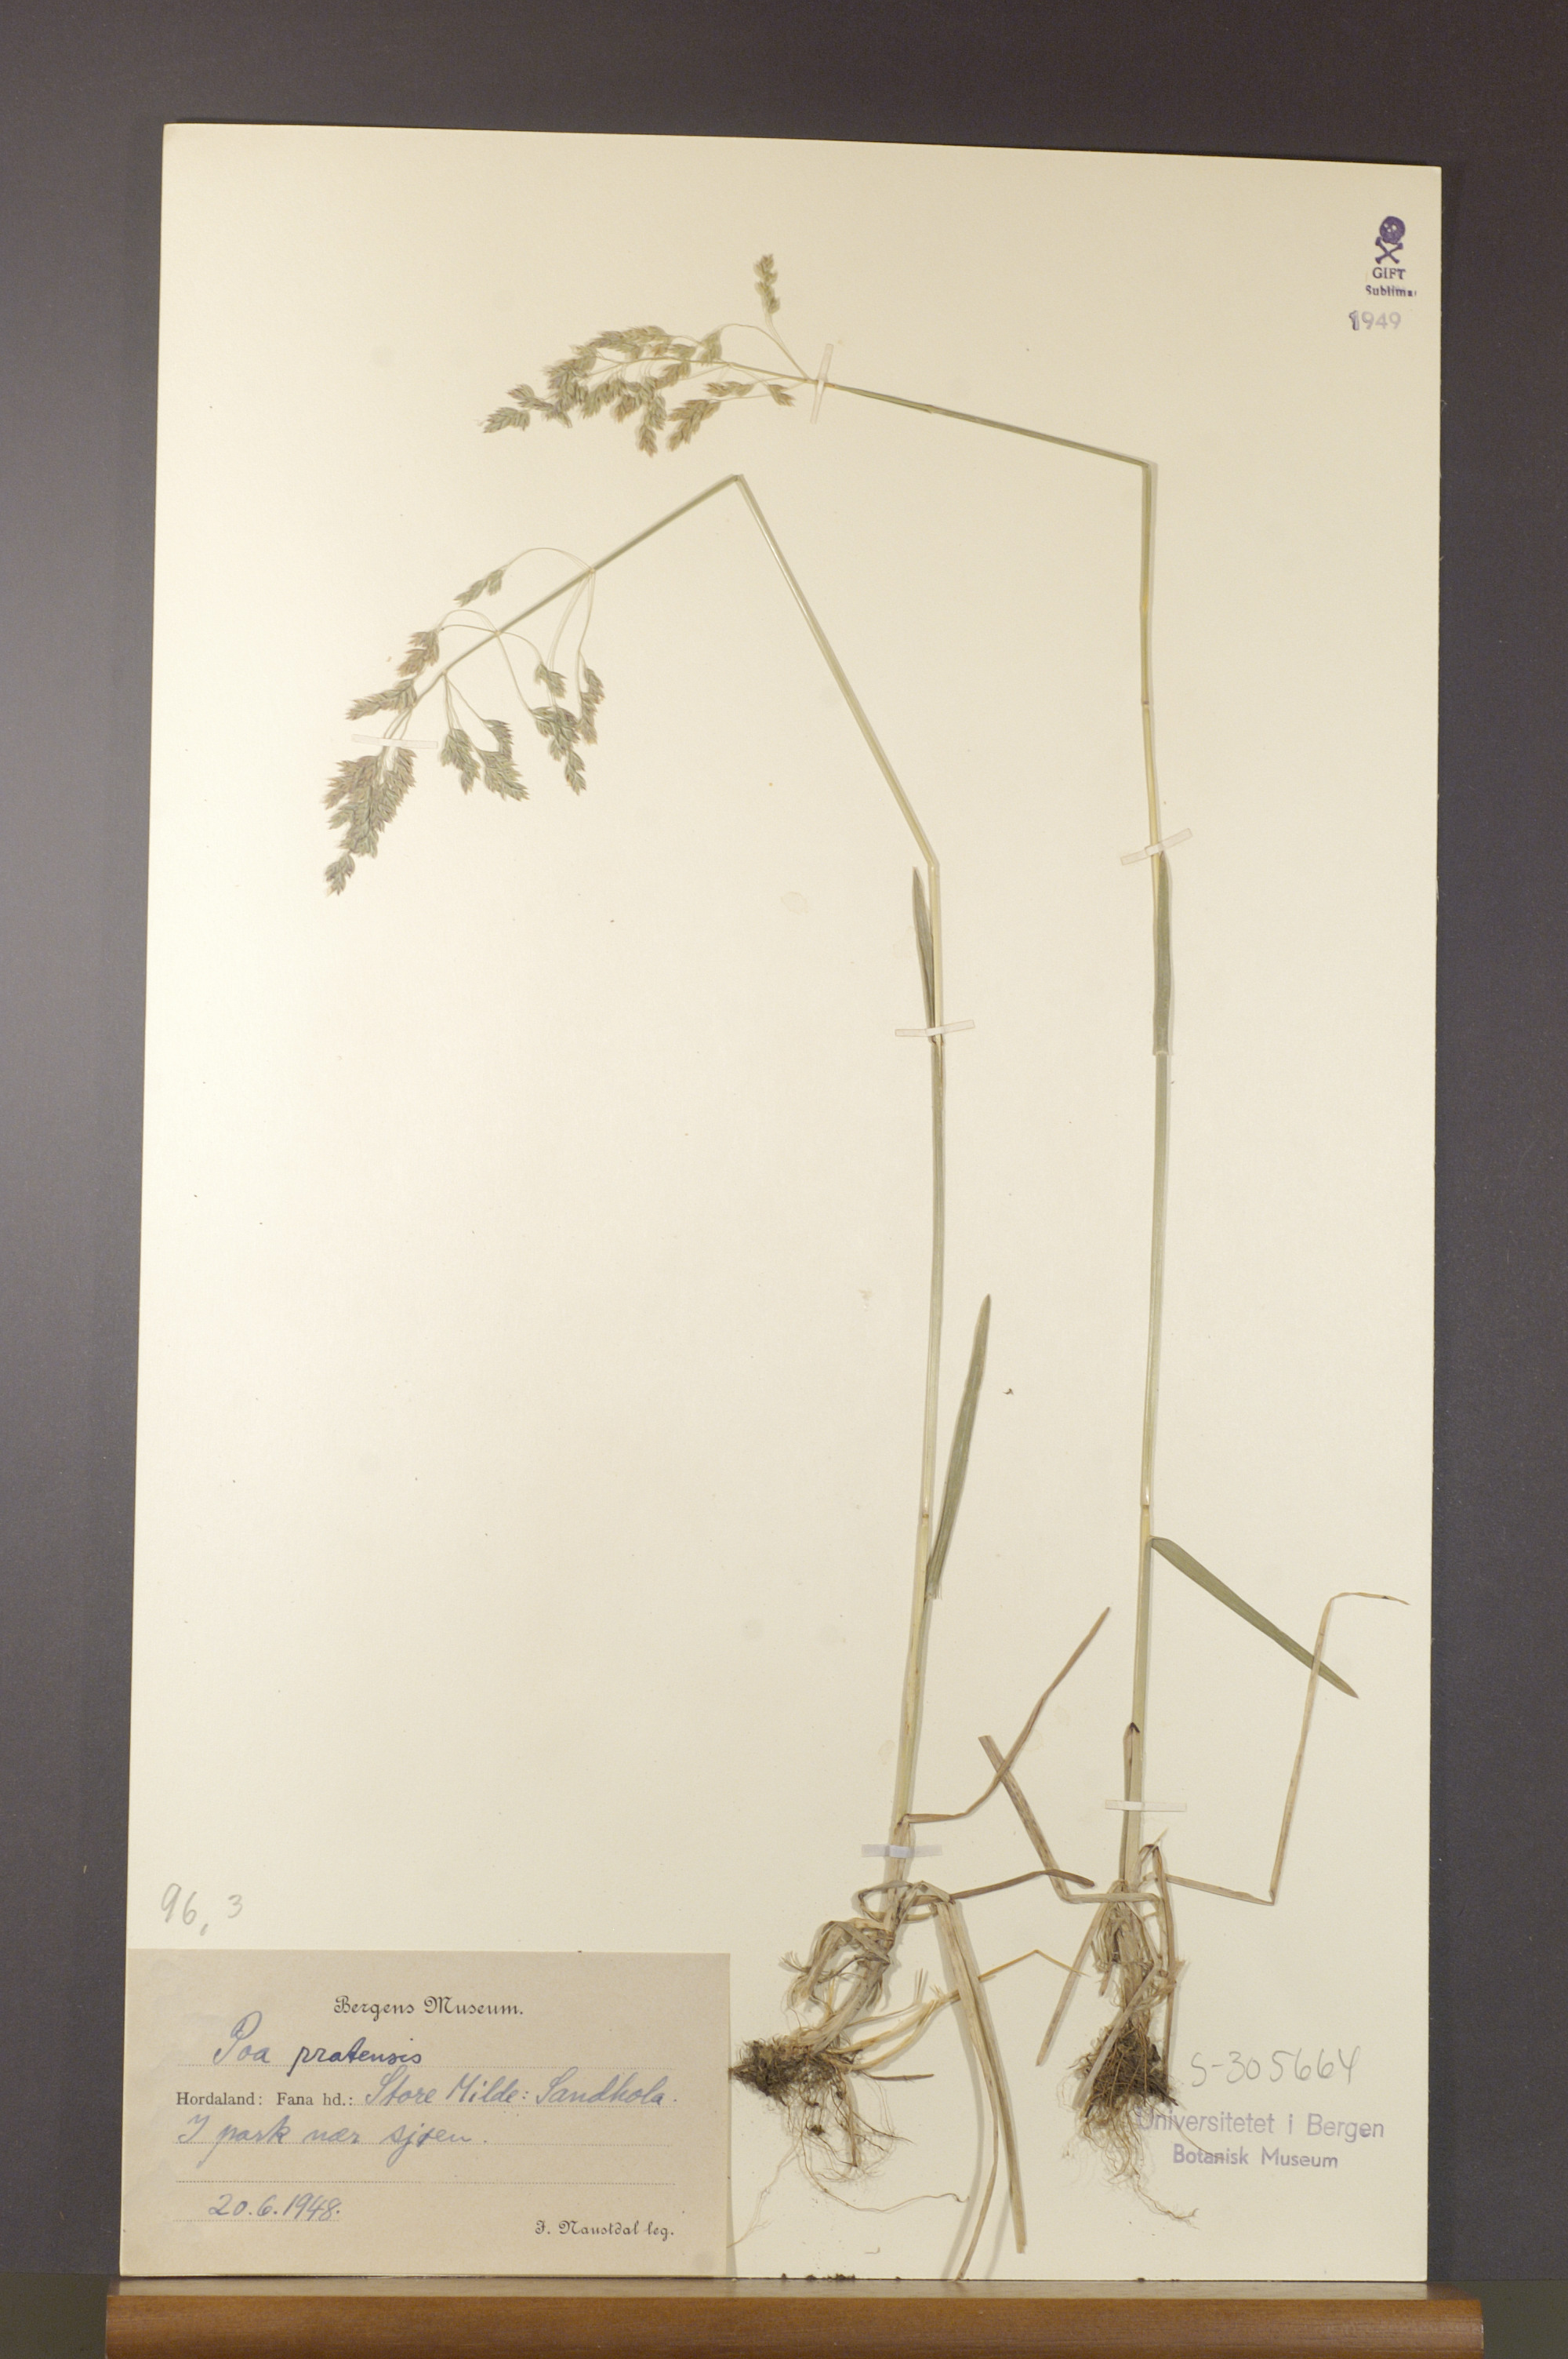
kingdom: Plantae
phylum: Tracheophyta
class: Liliopsida
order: Poales
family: Poaceae
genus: Poa
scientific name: Poa pratensis
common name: Kentucky bluegrass
